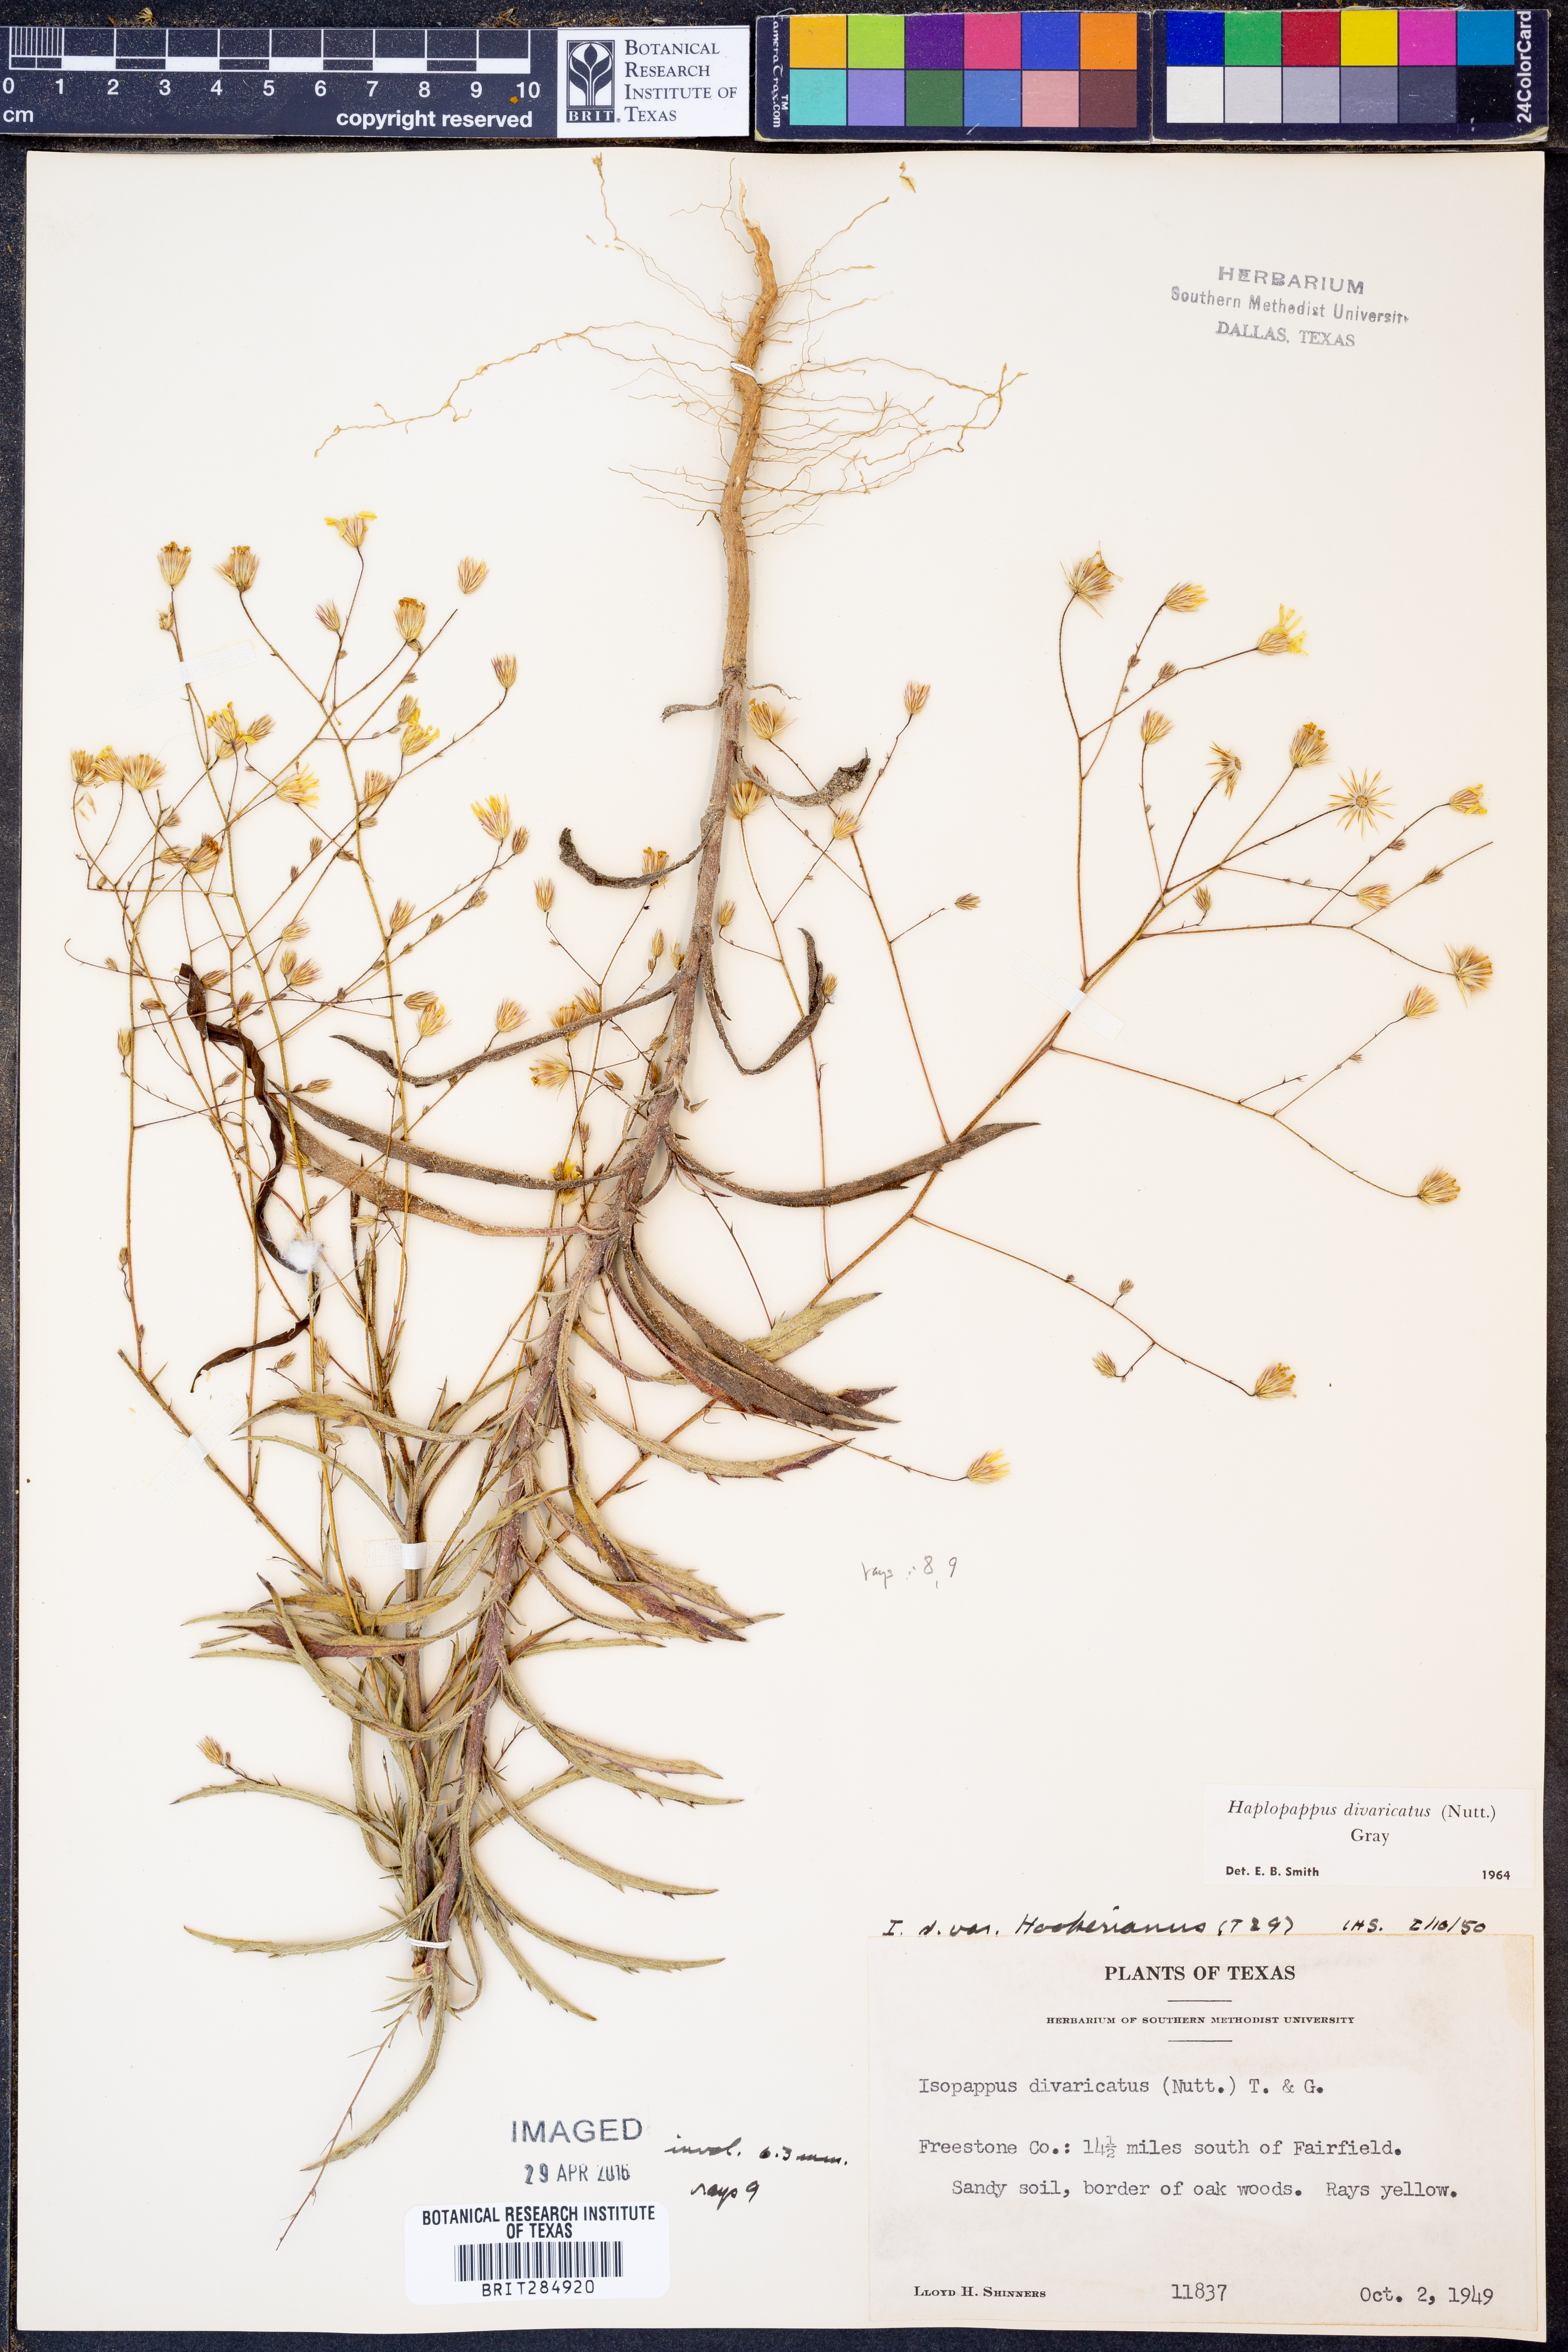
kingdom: Plantae
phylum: Tracheophyta
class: Magnoliopsida
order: Asterales
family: Asteraceae
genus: Croptilon
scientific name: Croptilon divaricatum
